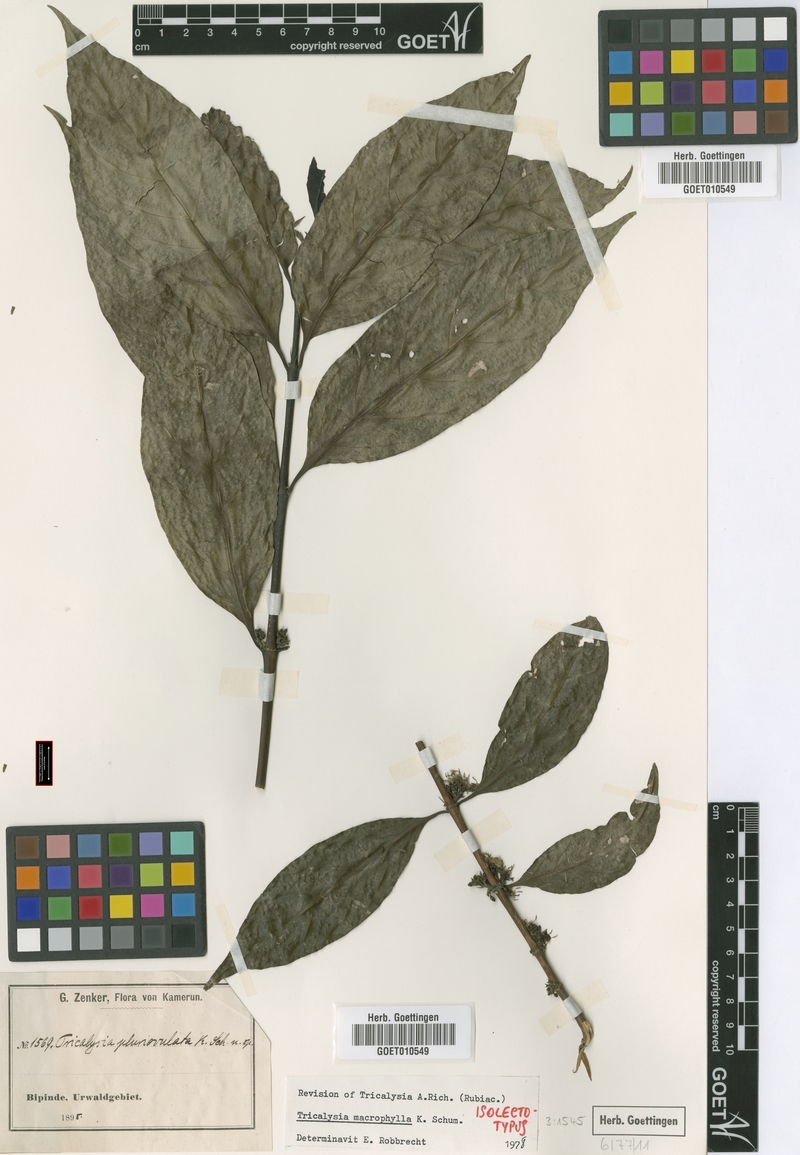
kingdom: Plantae
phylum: Tracheophyta
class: Magnoliopsida
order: Gentianales
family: Rubiaceae
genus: Empogona
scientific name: Empogona macrophylla
